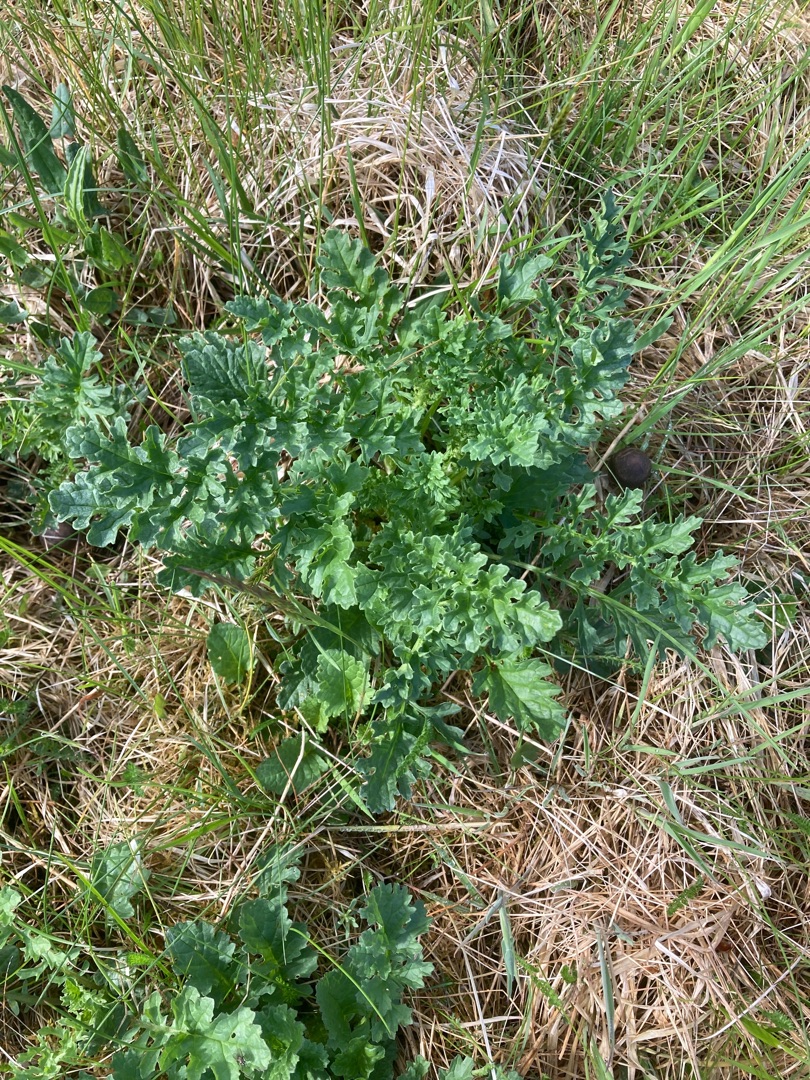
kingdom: Plantae
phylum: Tracheophyta
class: Magnoliopsida
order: Asterales
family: Asteraceae
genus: Jacobaea
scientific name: Jacobaea vulgaris
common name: Eng-brandbæger
